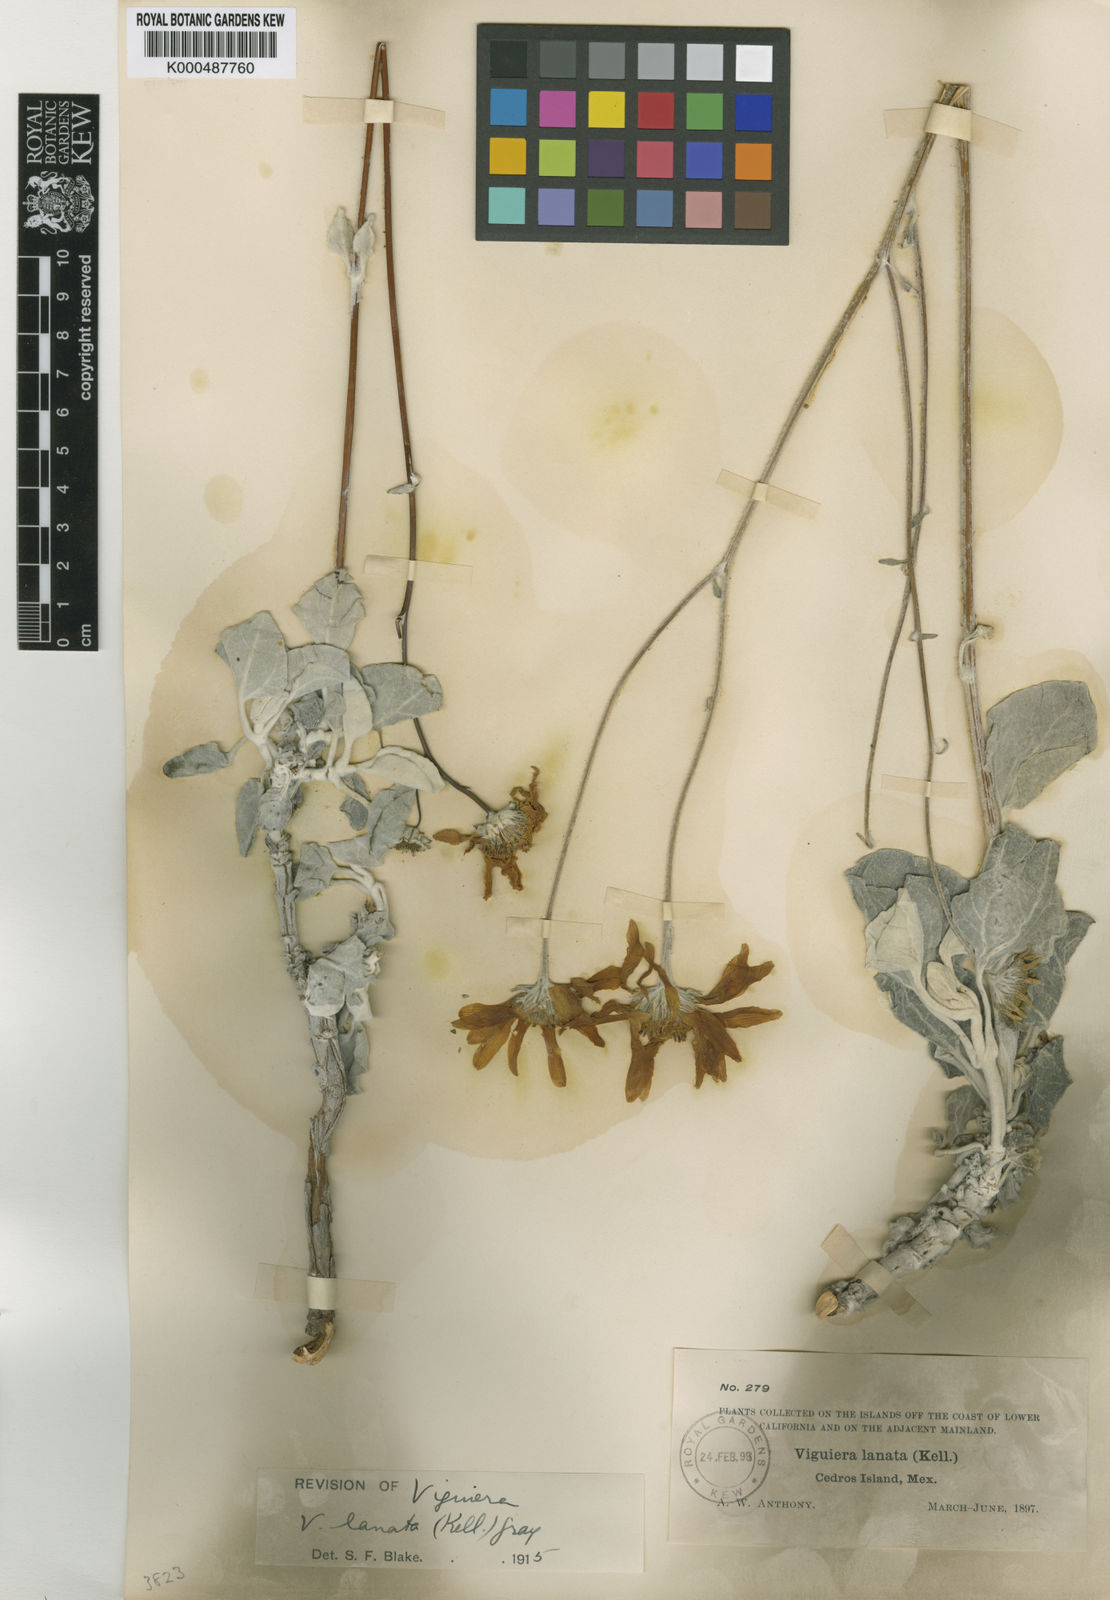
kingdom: Plantae
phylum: Tracheophyta
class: Magnoliopsida
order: Asterales
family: Asteraceae
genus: Bahiopsis
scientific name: Bahiopsis lanata
